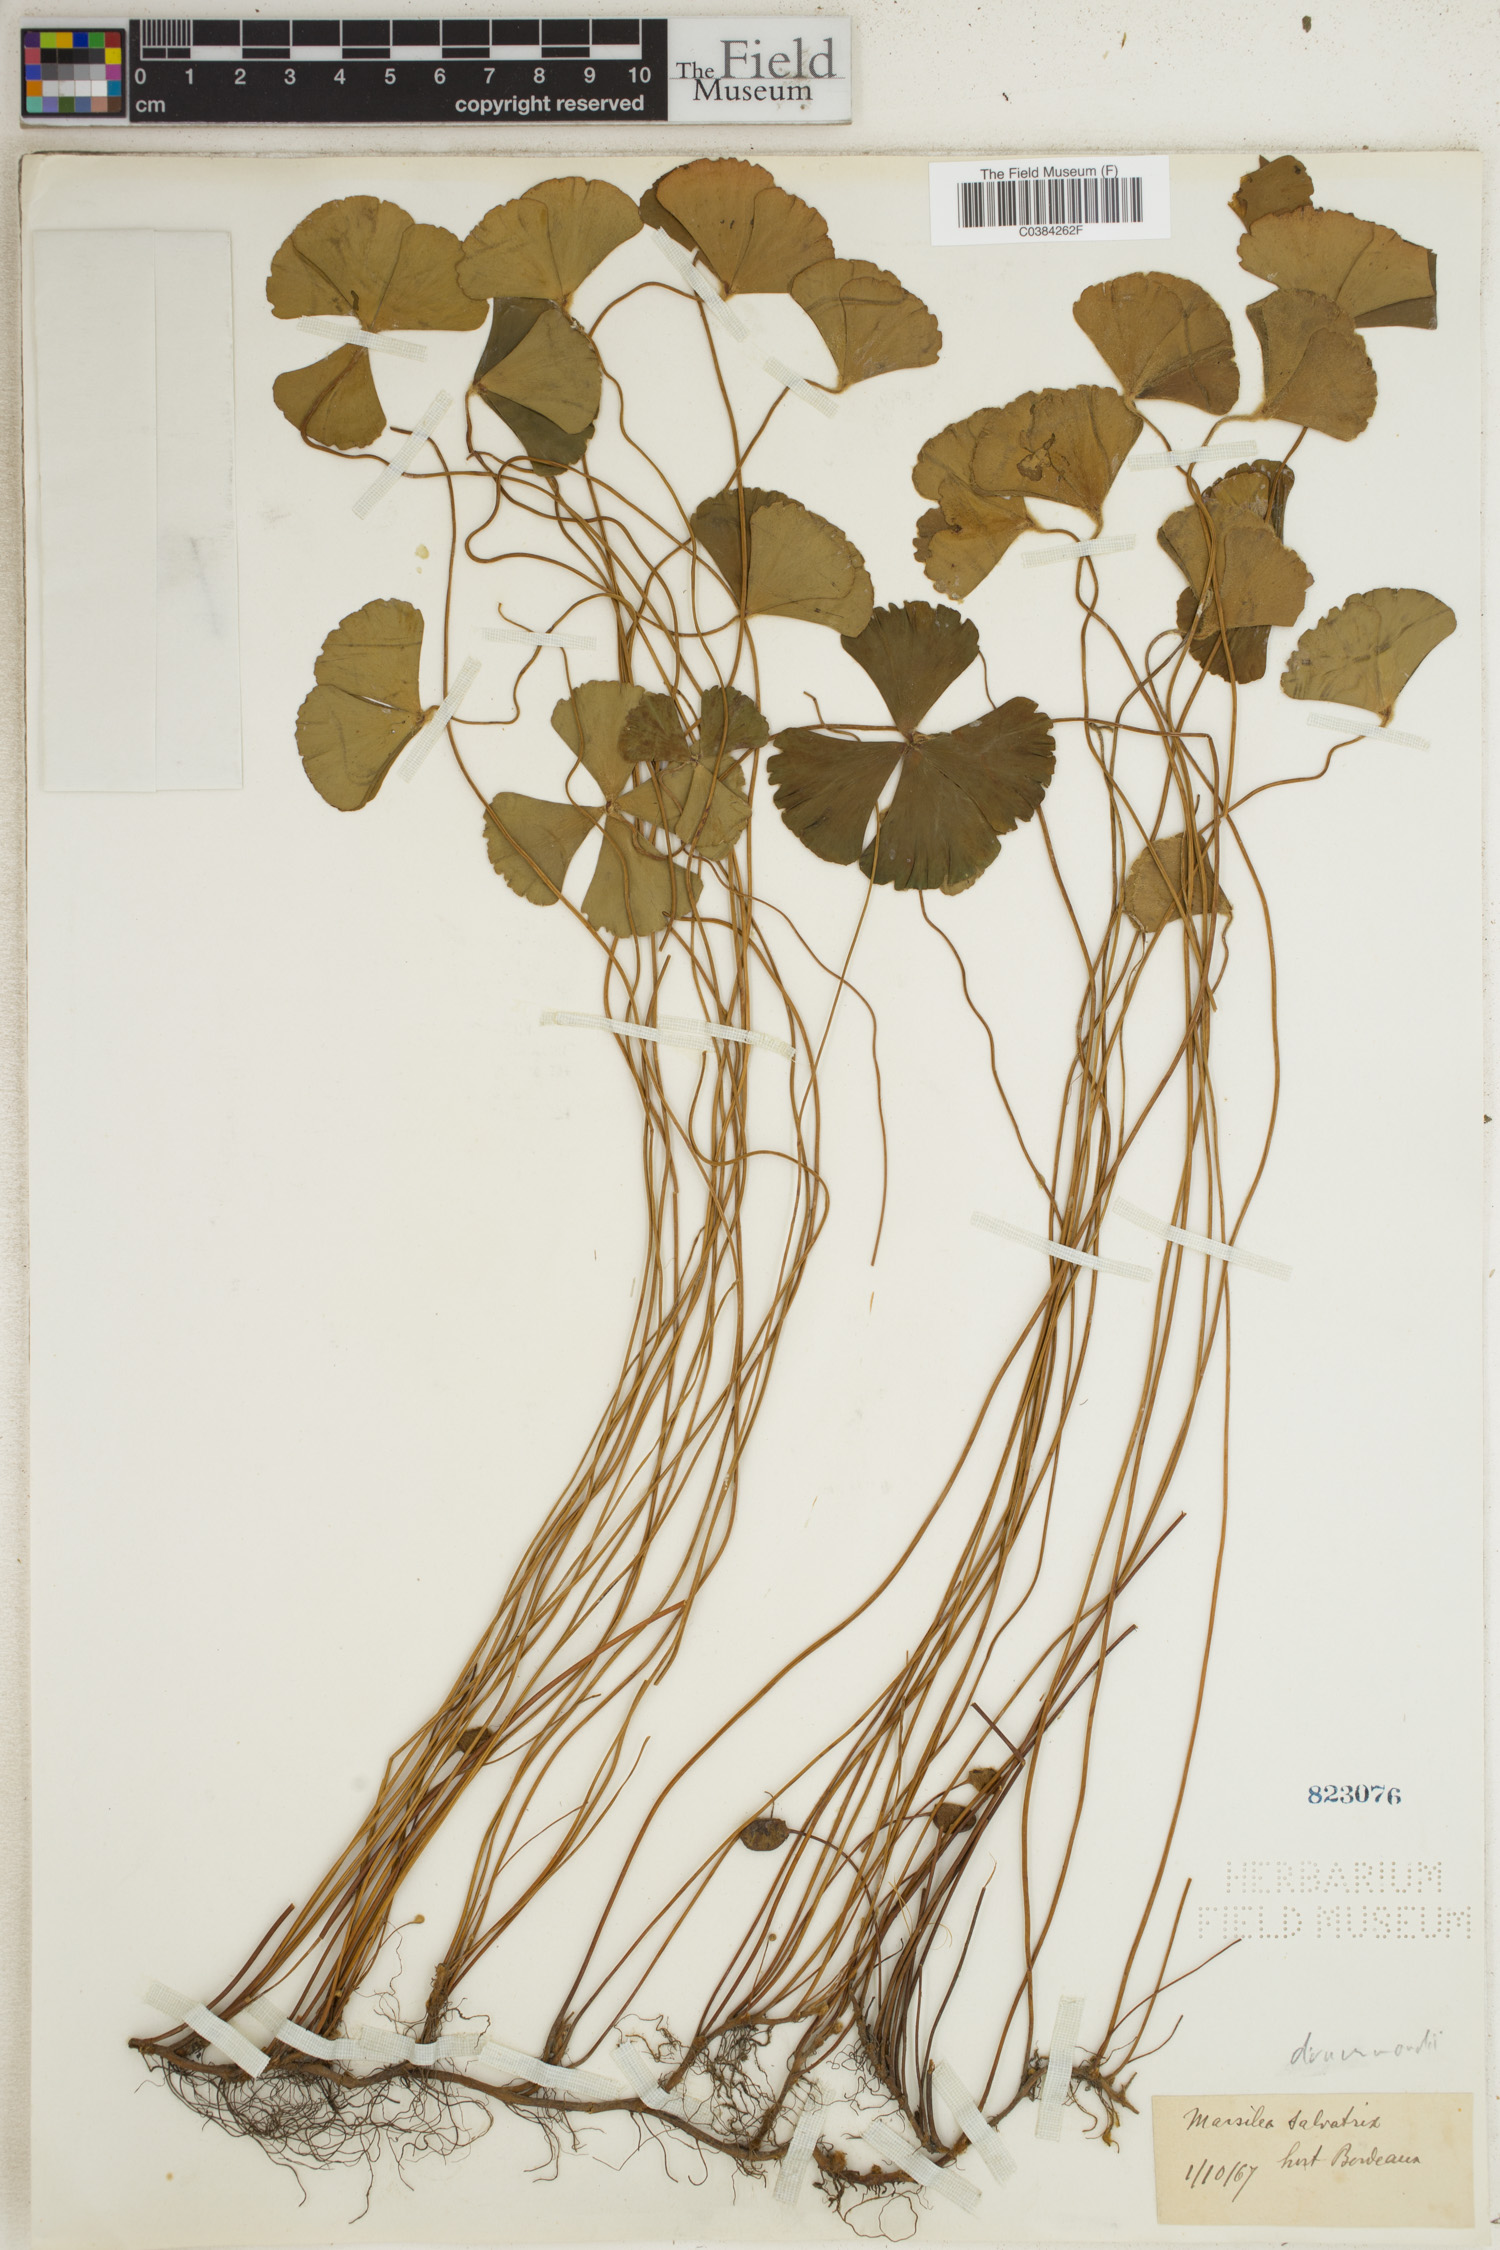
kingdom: Plantae
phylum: Tracheophyta
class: Polypodiopsida
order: Salviniales
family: Marsileaceae
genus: Marsilea
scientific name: Marsilea drummondii
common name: Nardoo
